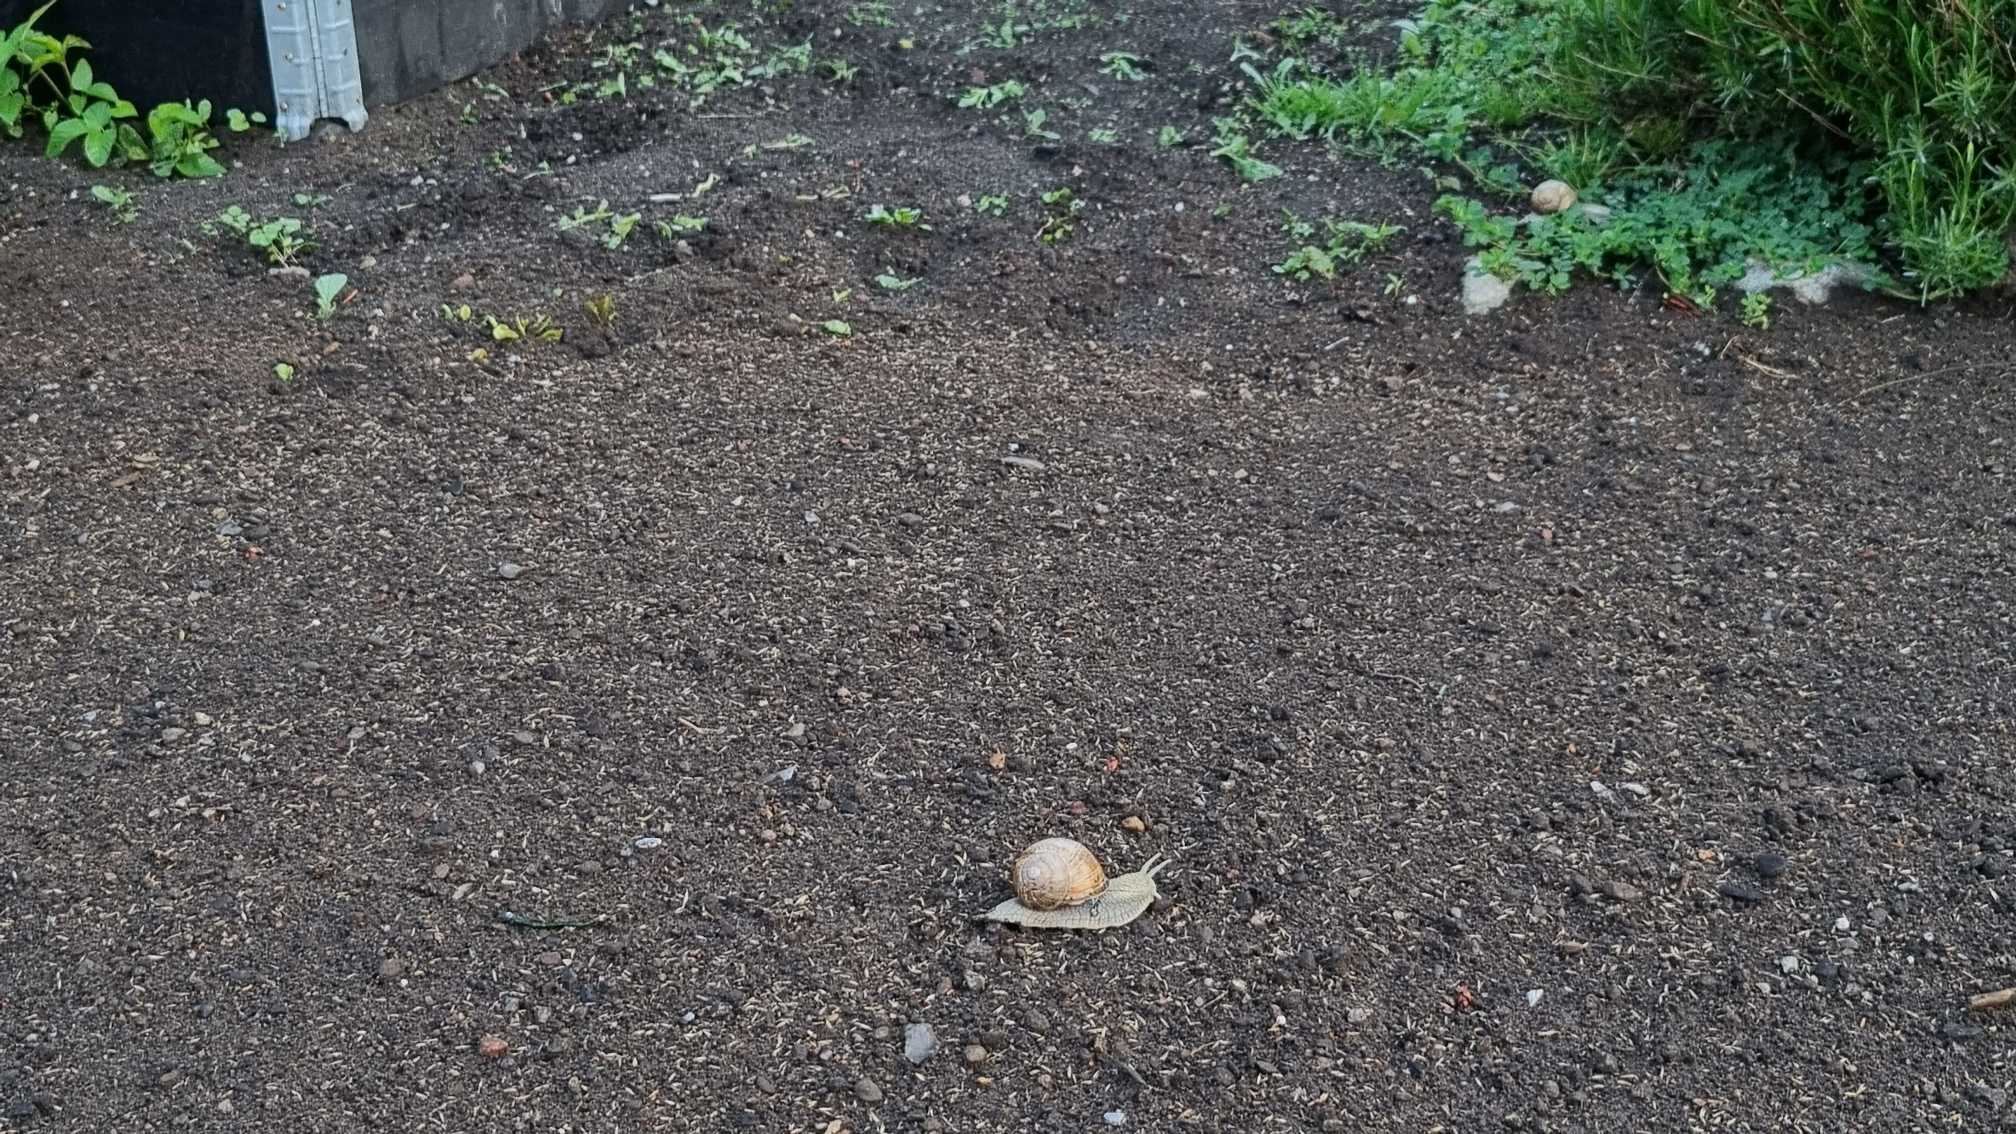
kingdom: Animalia
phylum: Mollusca
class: Gastropoda
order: Stylommatophora
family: Helicidae
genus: Helix
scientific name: Helix pomatia
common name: Vinbjergsnegl
